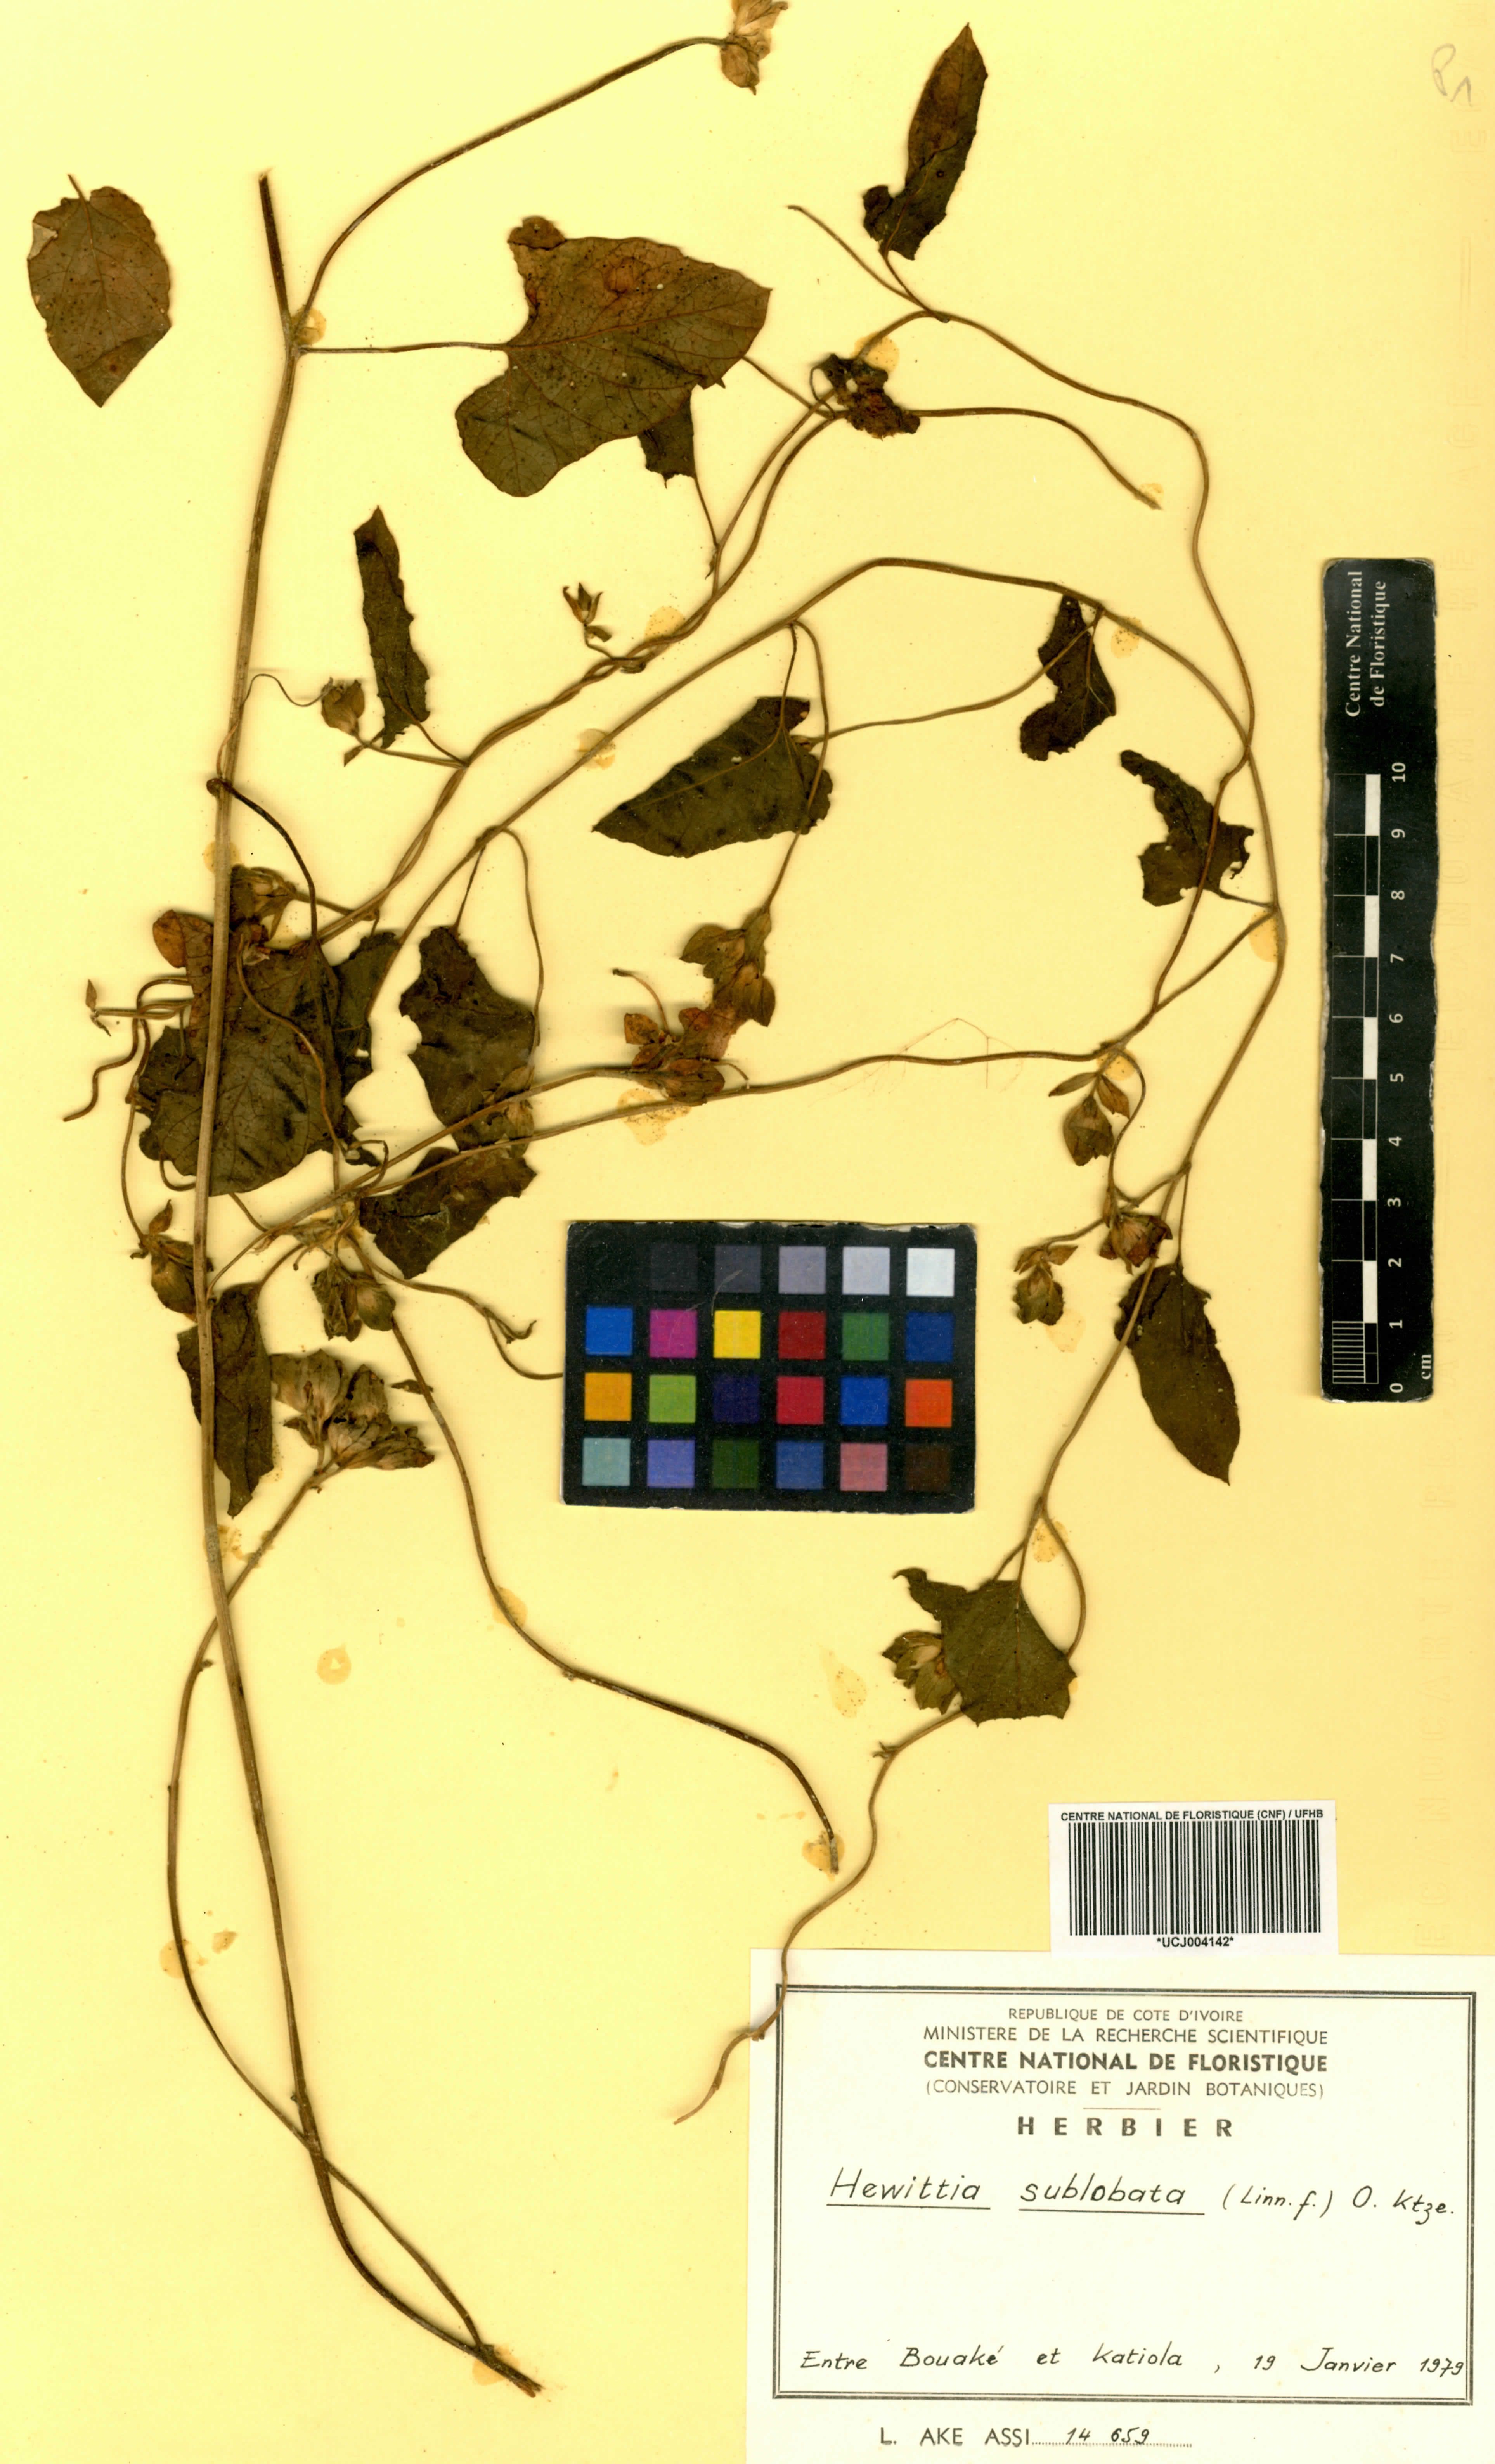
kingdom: Plantae
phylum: Tracheophyta
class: Magnoliopsida
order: Solanales
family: Convolvulaceae
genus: Hewittia
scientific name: Hewittia malabarica
